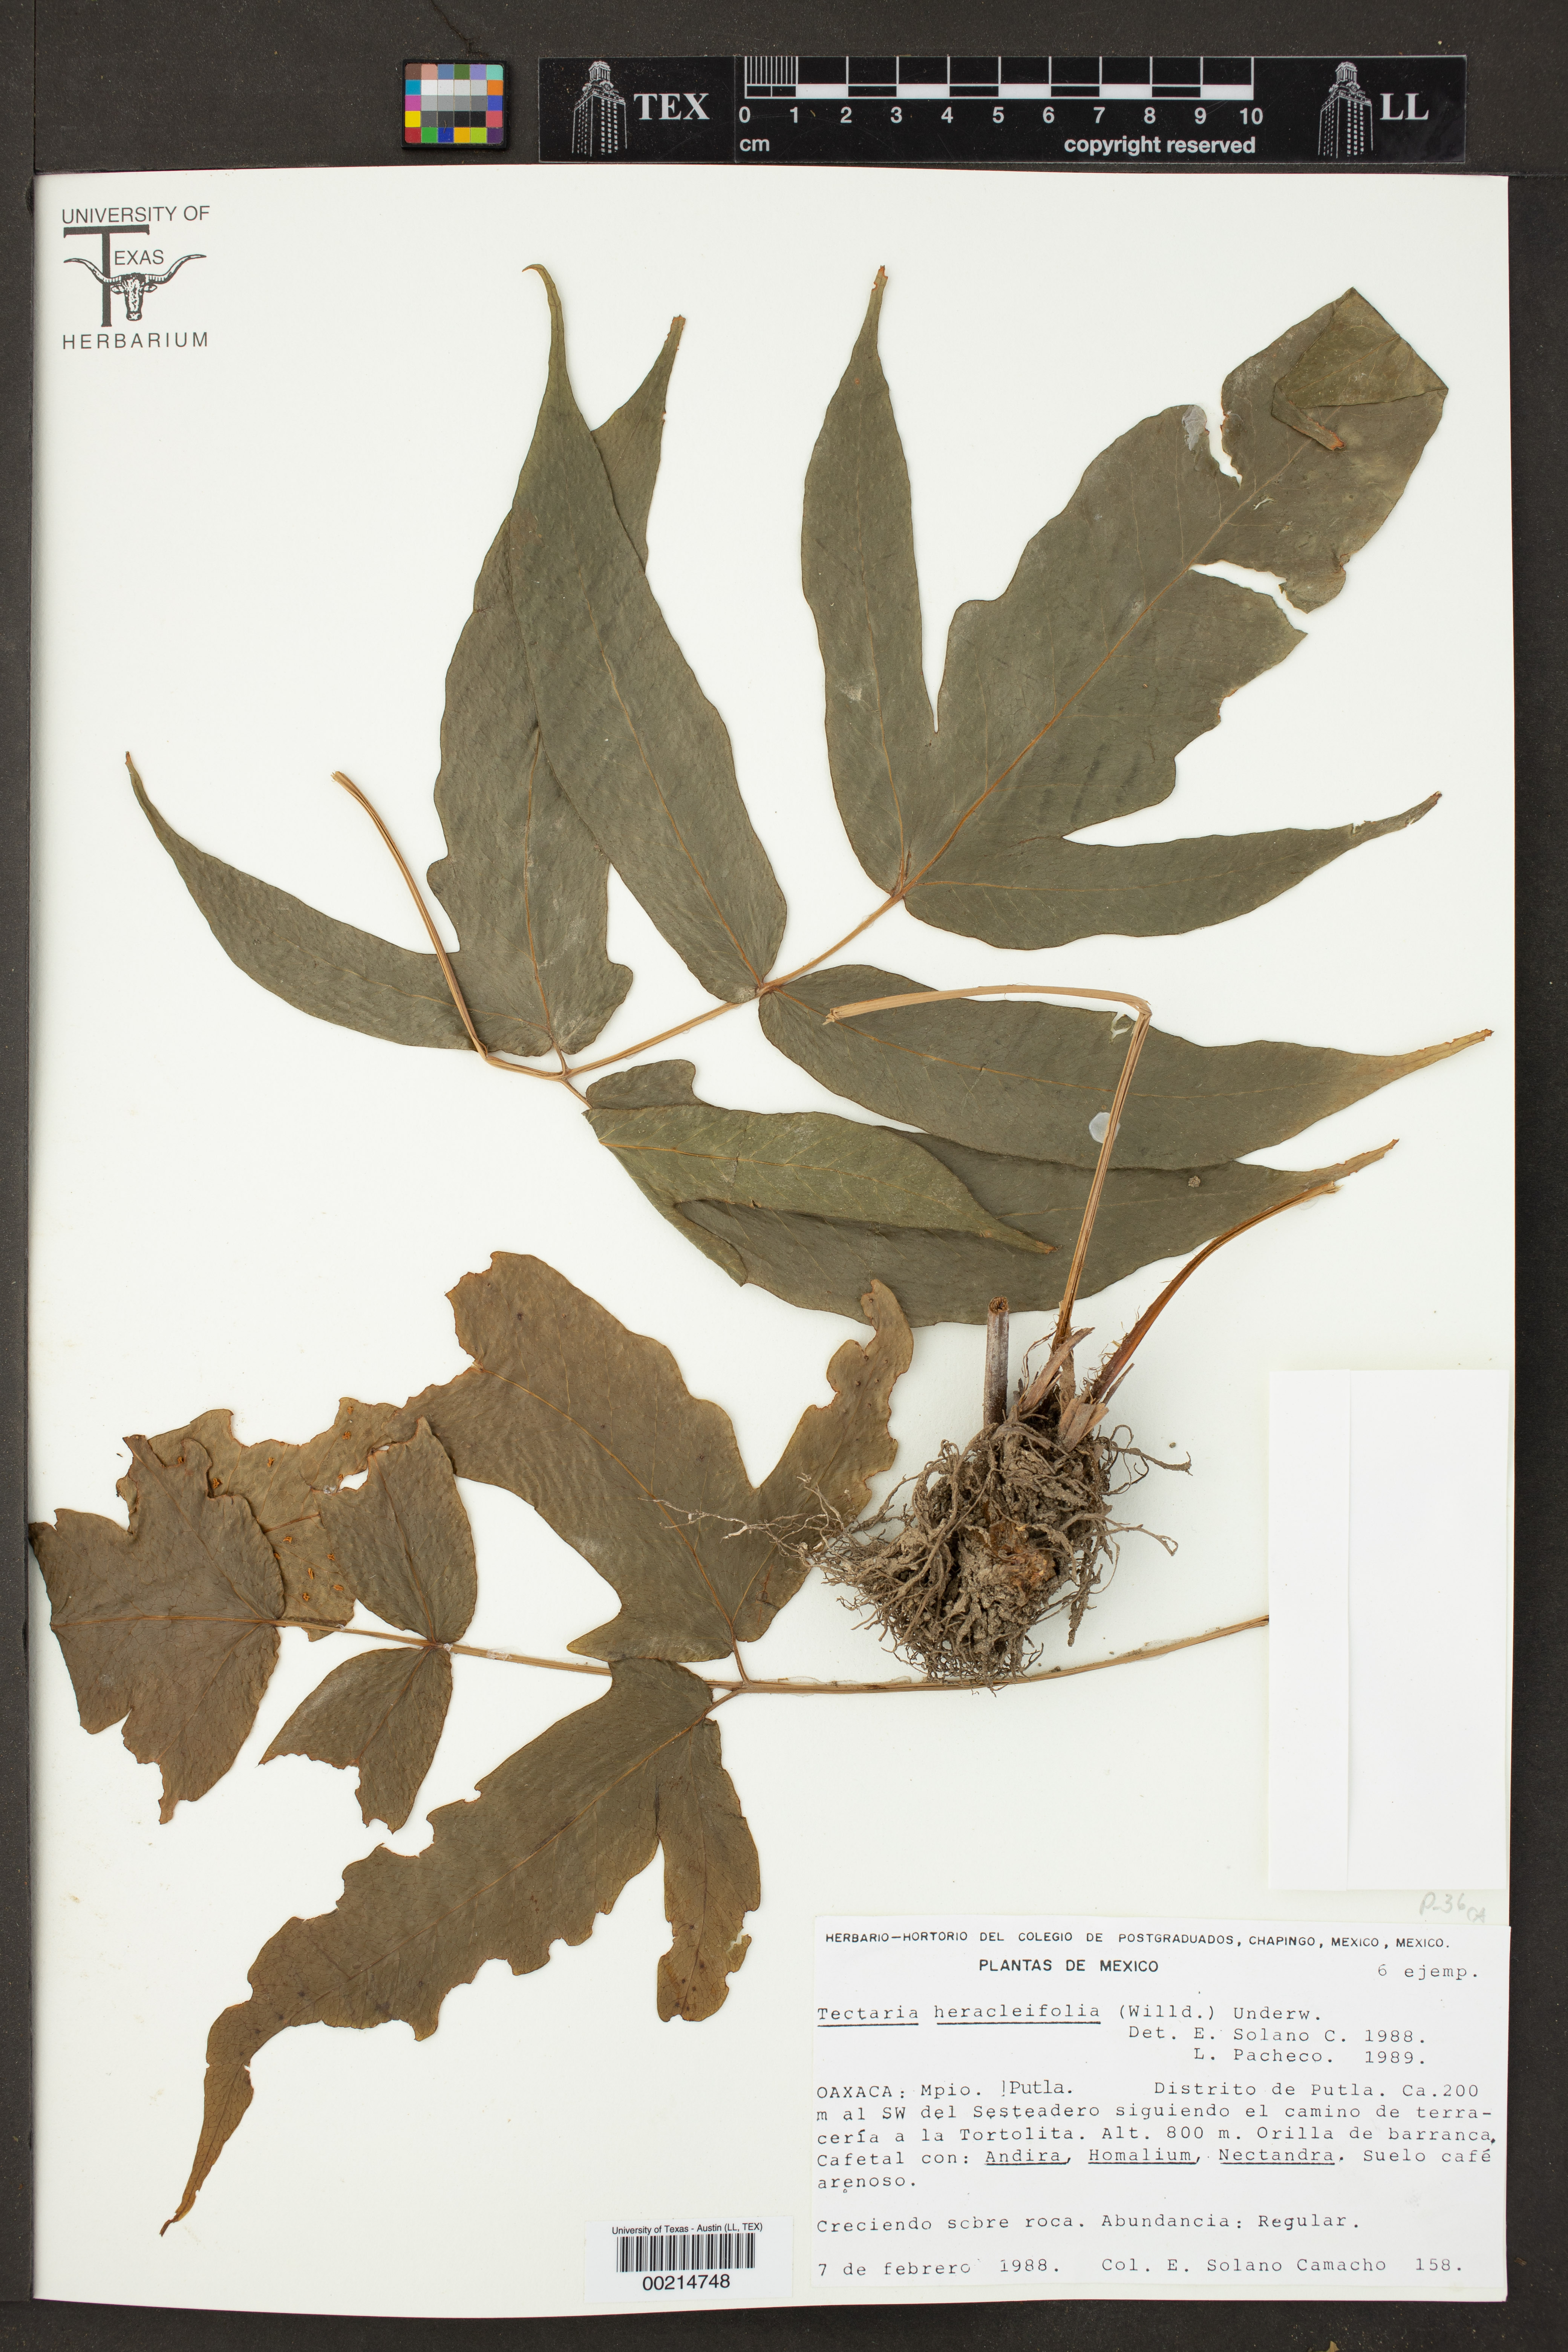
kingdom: Plantae
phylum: Tracheophyta
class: Polypodiopsida
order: Polypodiales
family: Tectariaceae
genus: Tectaria
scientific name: Tectaria heracleifolia
